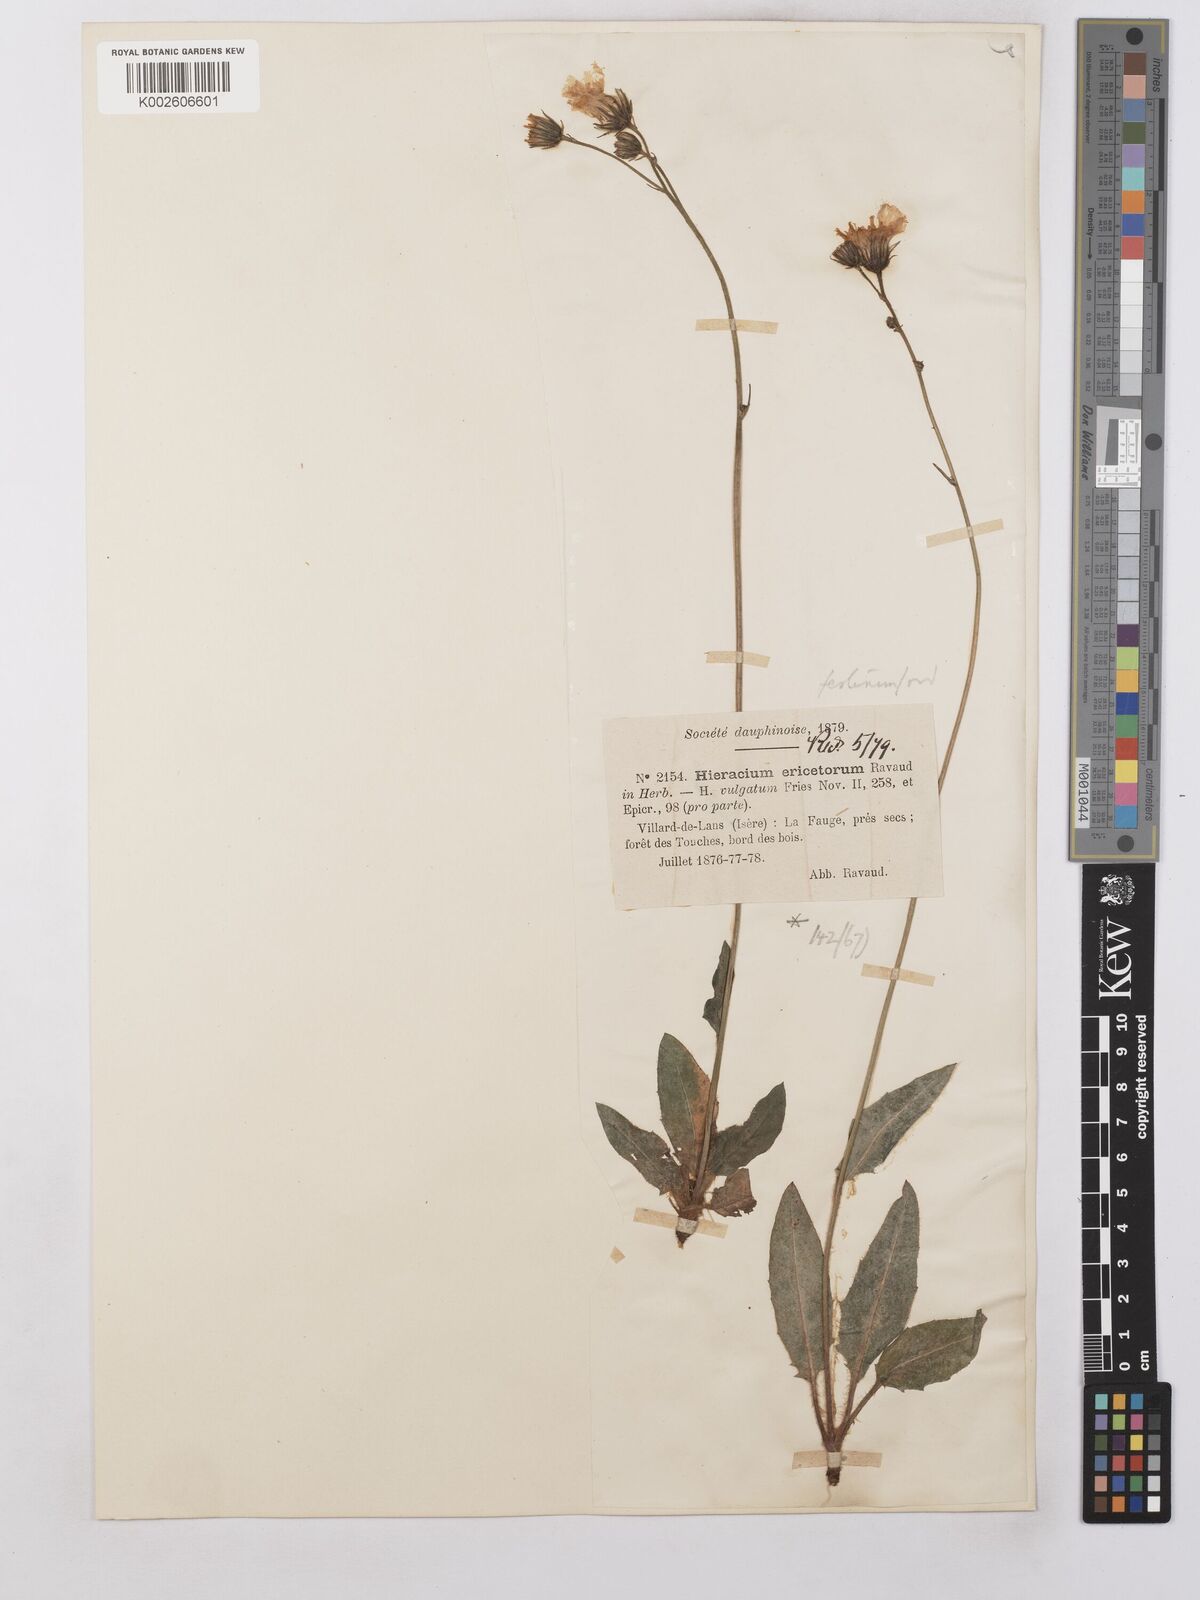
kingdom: Plantae
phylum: Tracheophyta
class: Magnoliopsida
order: Asterales
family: Asteraceae
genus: Hieracium
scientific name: Hieracium lachenalii
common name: Common hawkweed
